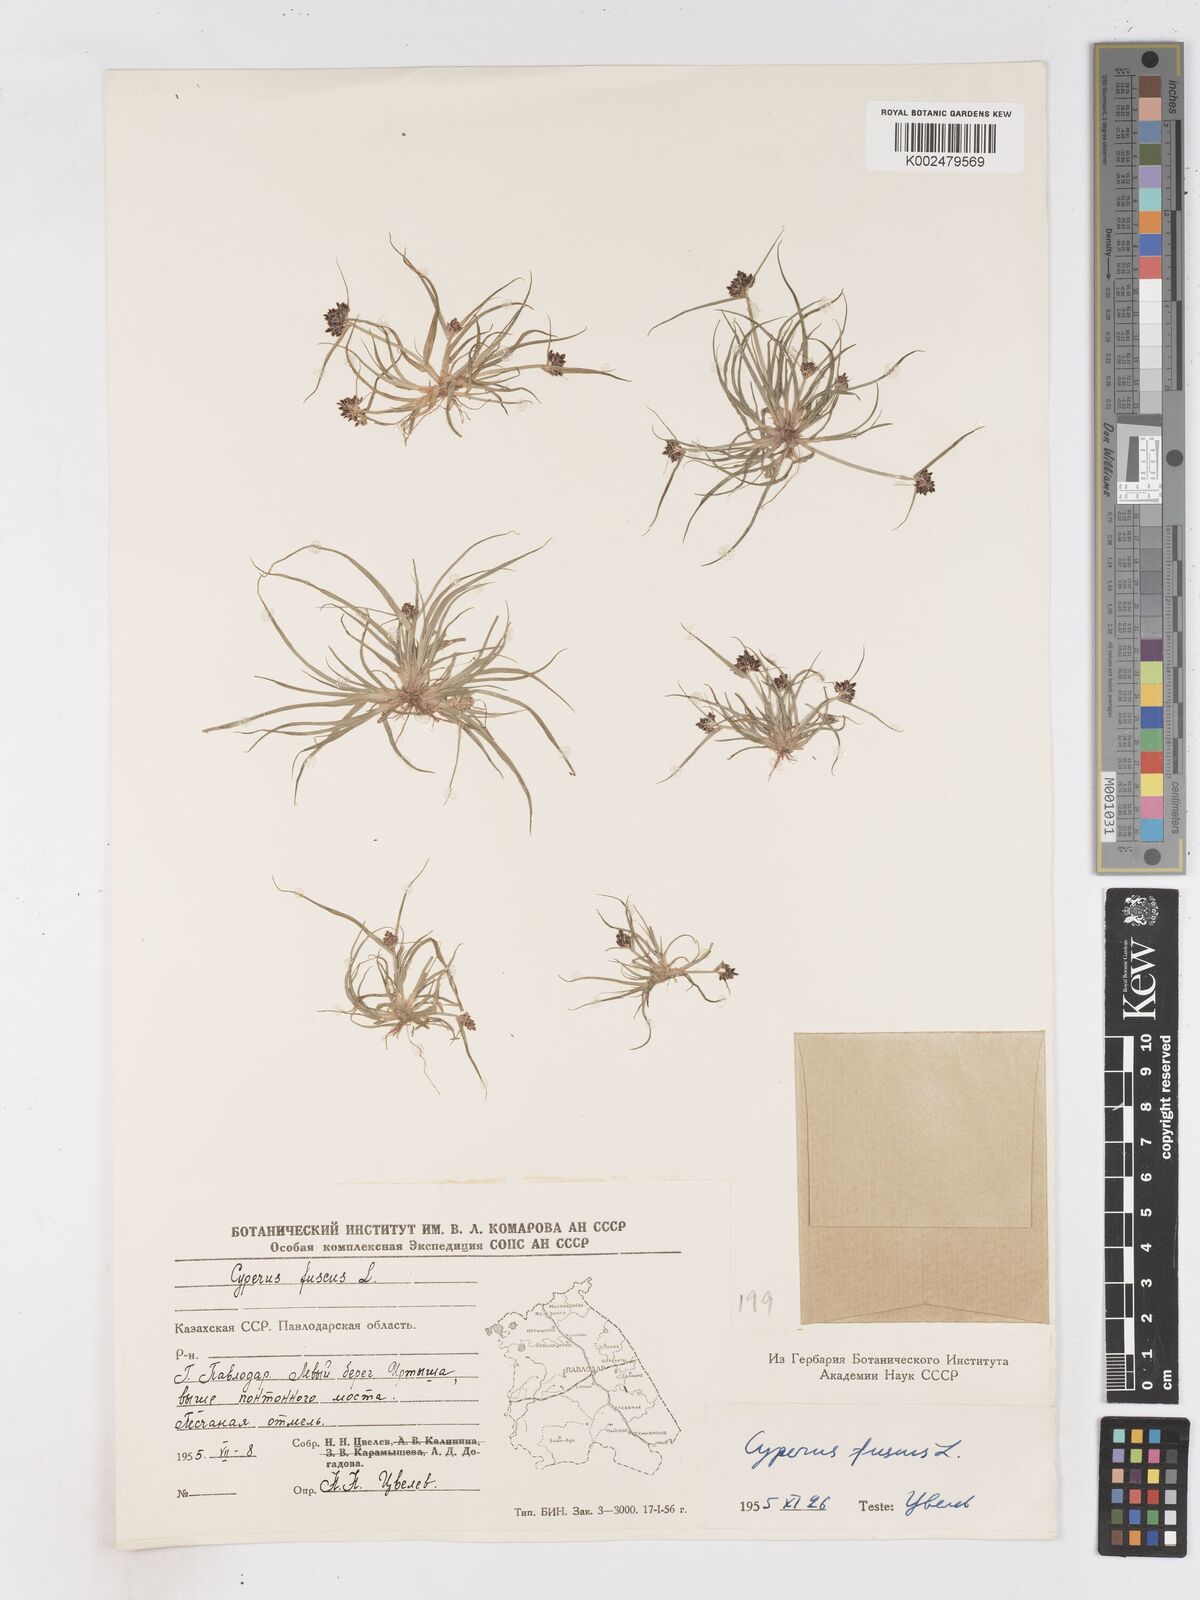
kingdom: Plantae
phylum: Tracheophyta
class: Liliopsida
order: Poales
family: Cyperaceae
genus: Cyperus
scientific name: Cyperus fuscus
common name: Brown galingale
